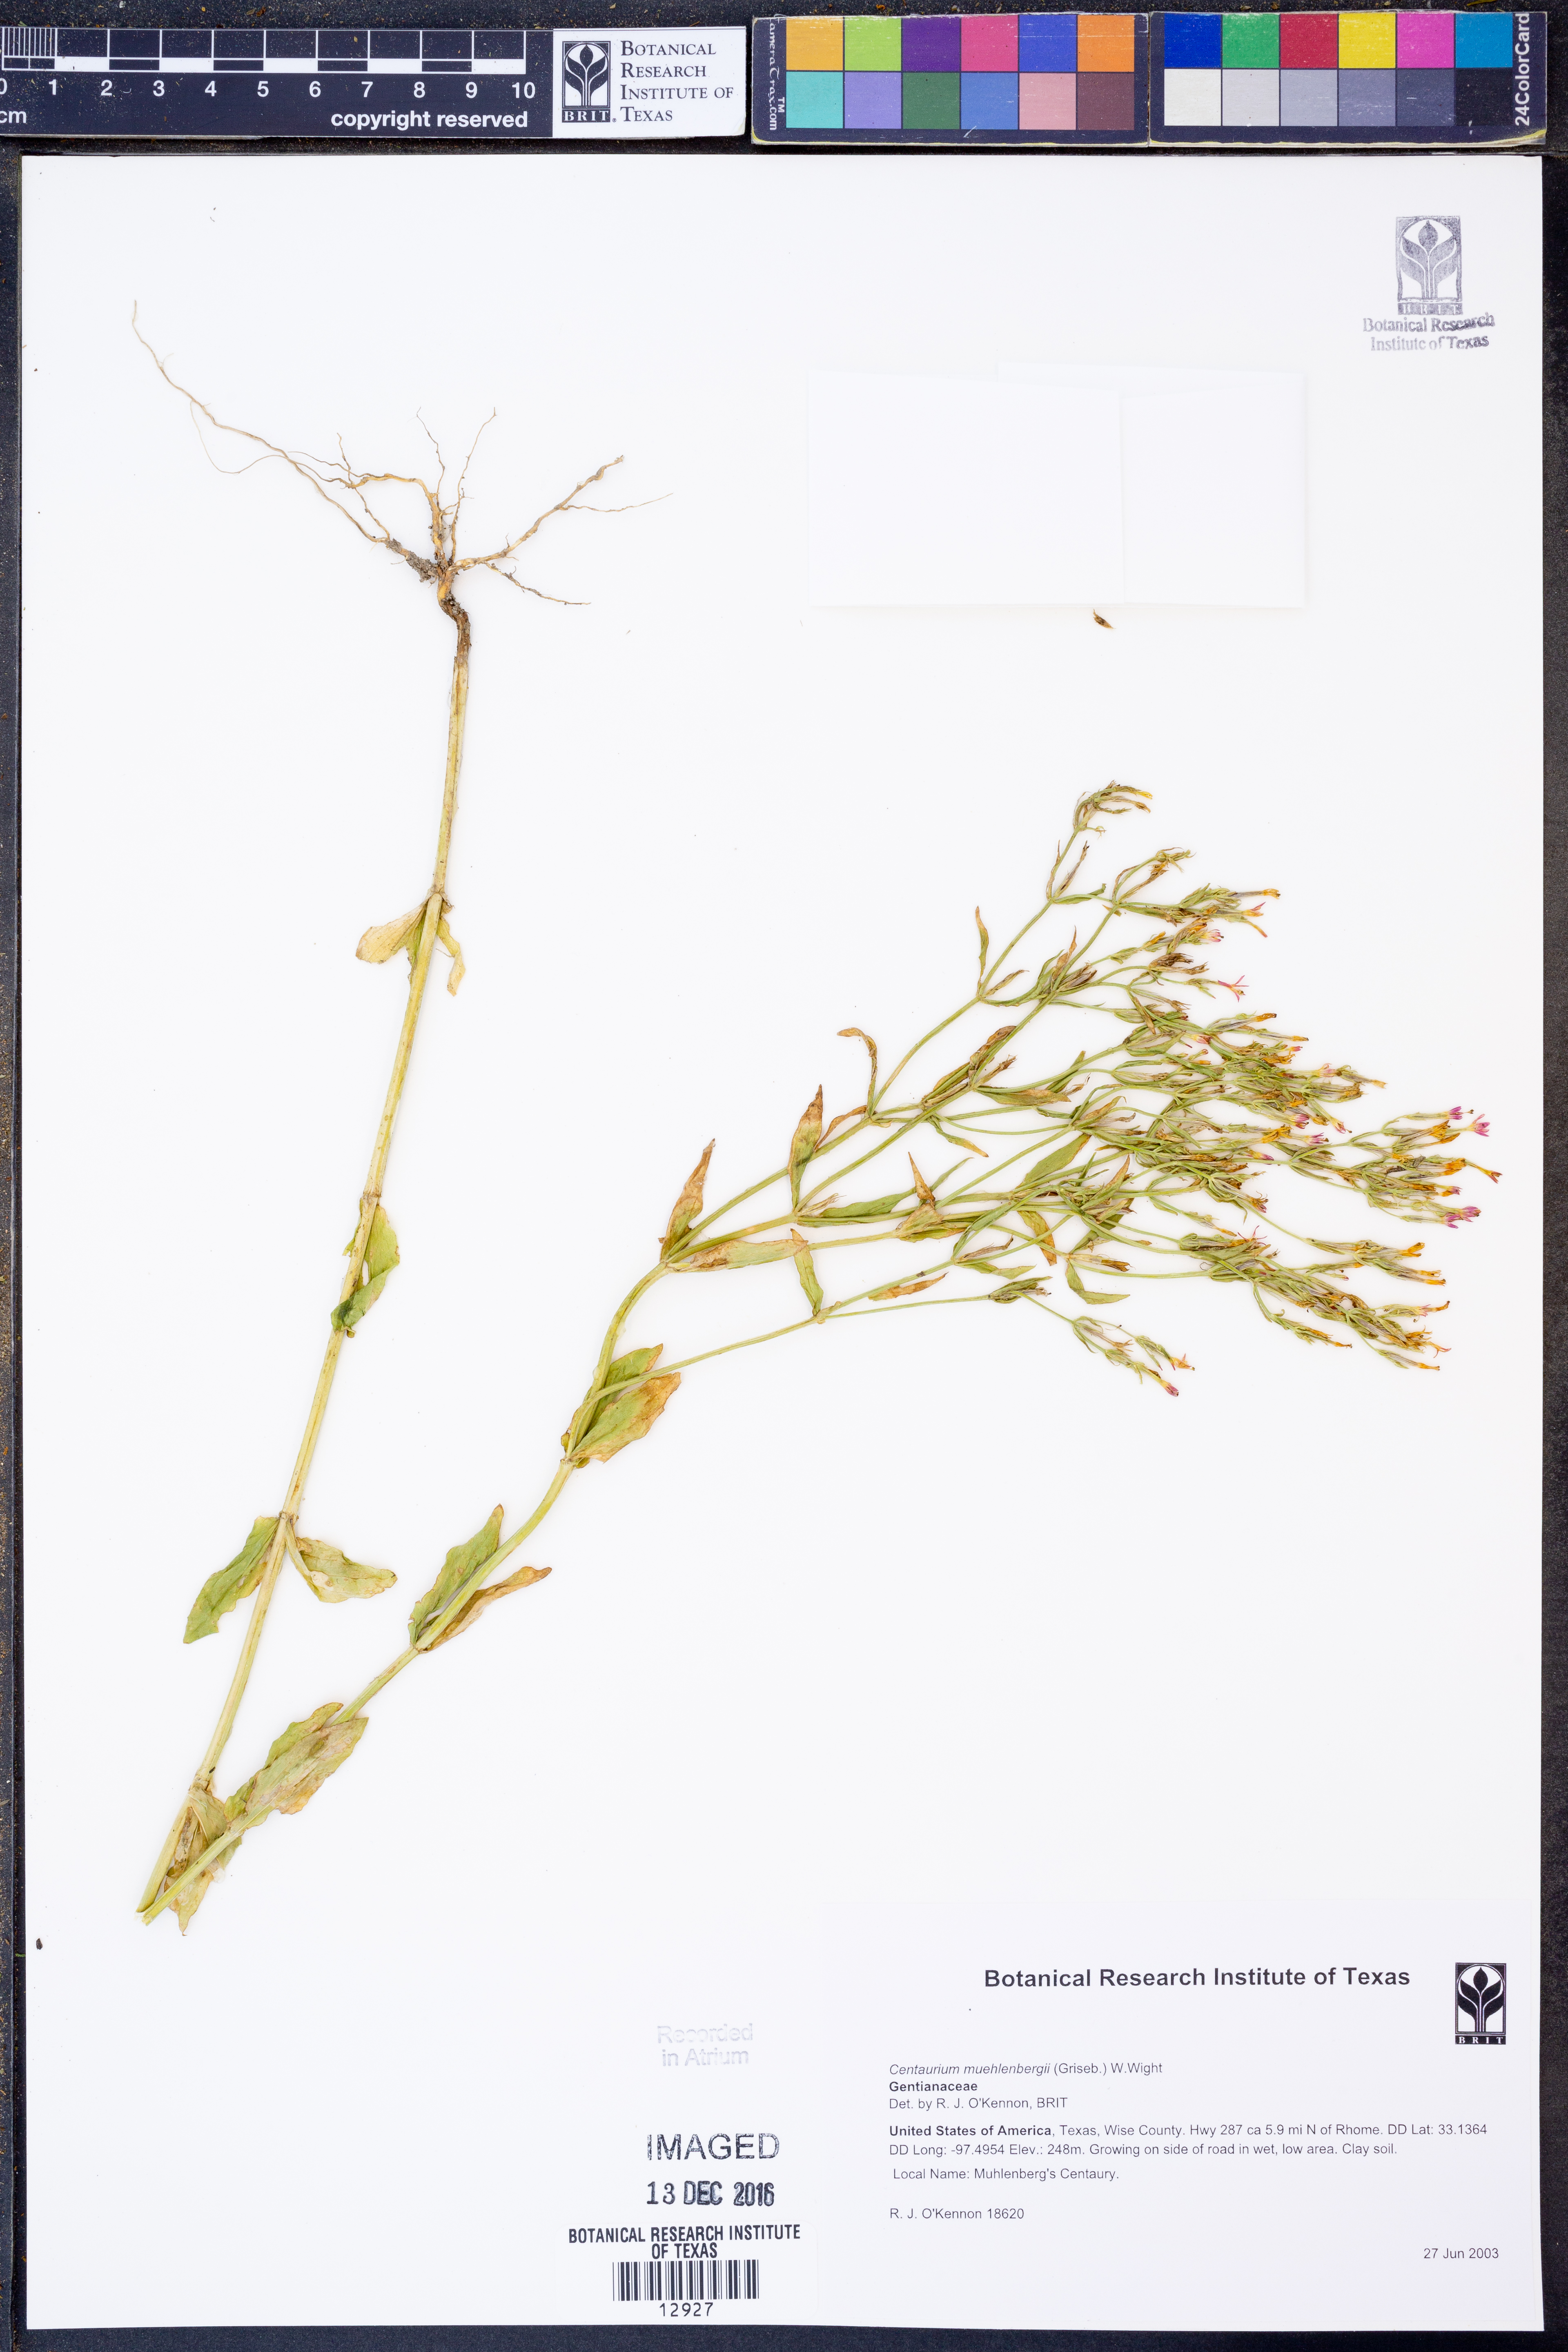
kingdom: Plantae
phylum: Tracheophyta
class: Magnoliopsida
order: Gentianales
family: Gentianaceae
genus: Zeltnera
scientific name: Zeltnera muhlenbergii
